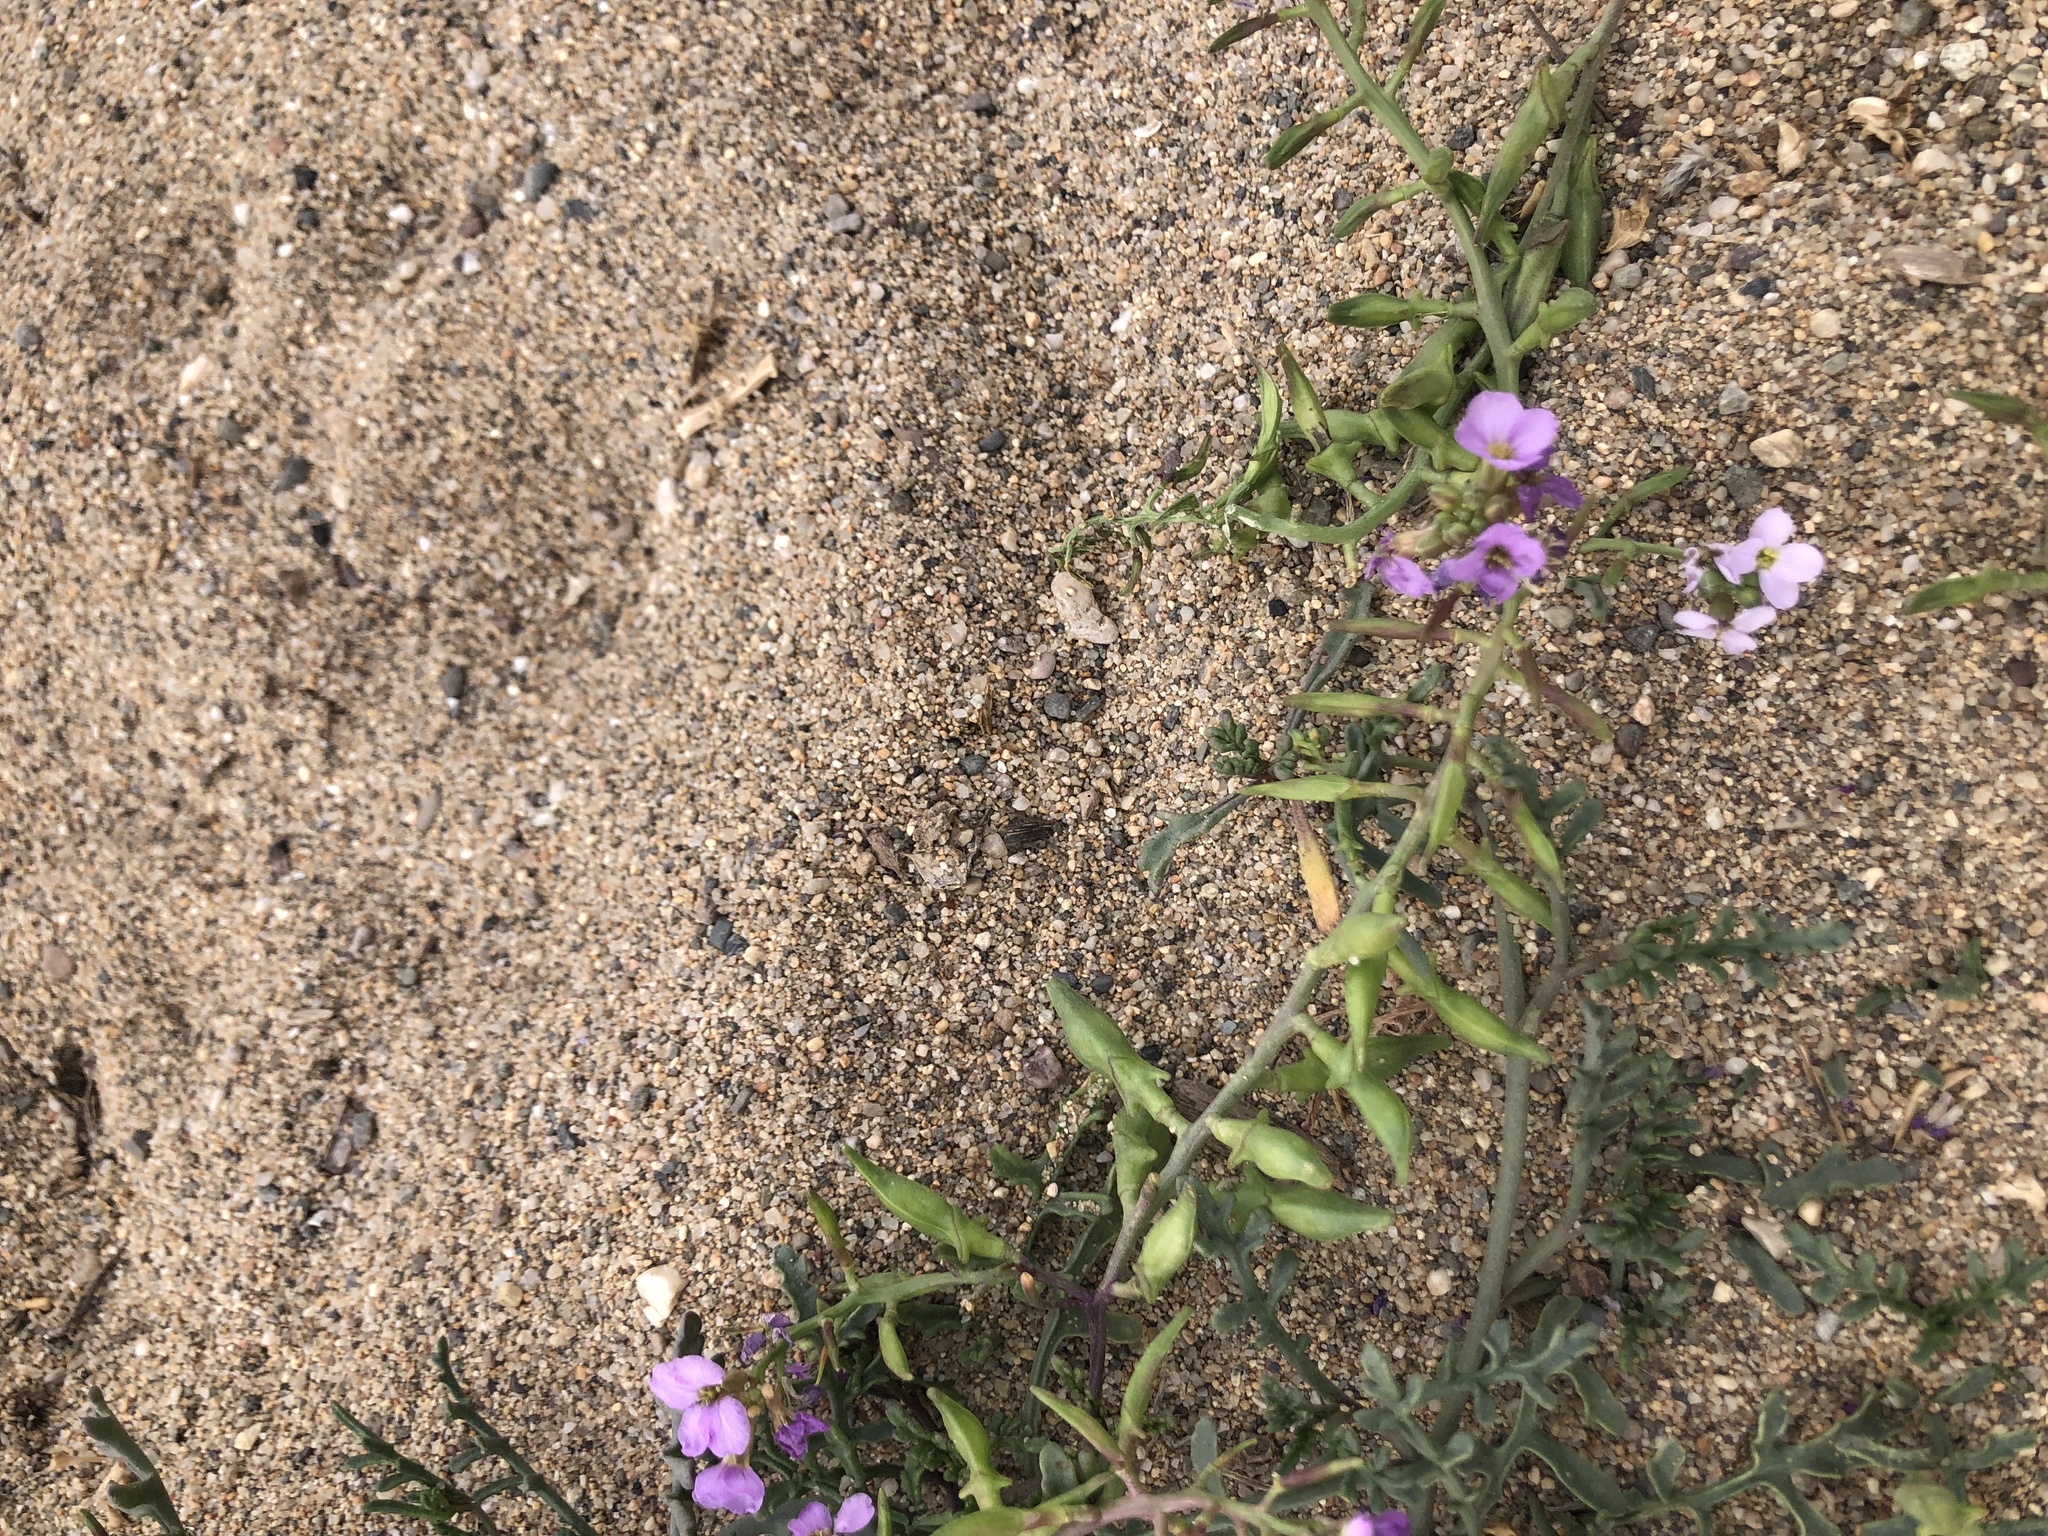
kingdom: Plantae
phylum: Tracheophyta
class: Magnoliopsida
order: Brassicales
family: Brassicaceae
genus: Cakile
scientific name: Cakile maritima
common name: Sea rocket
